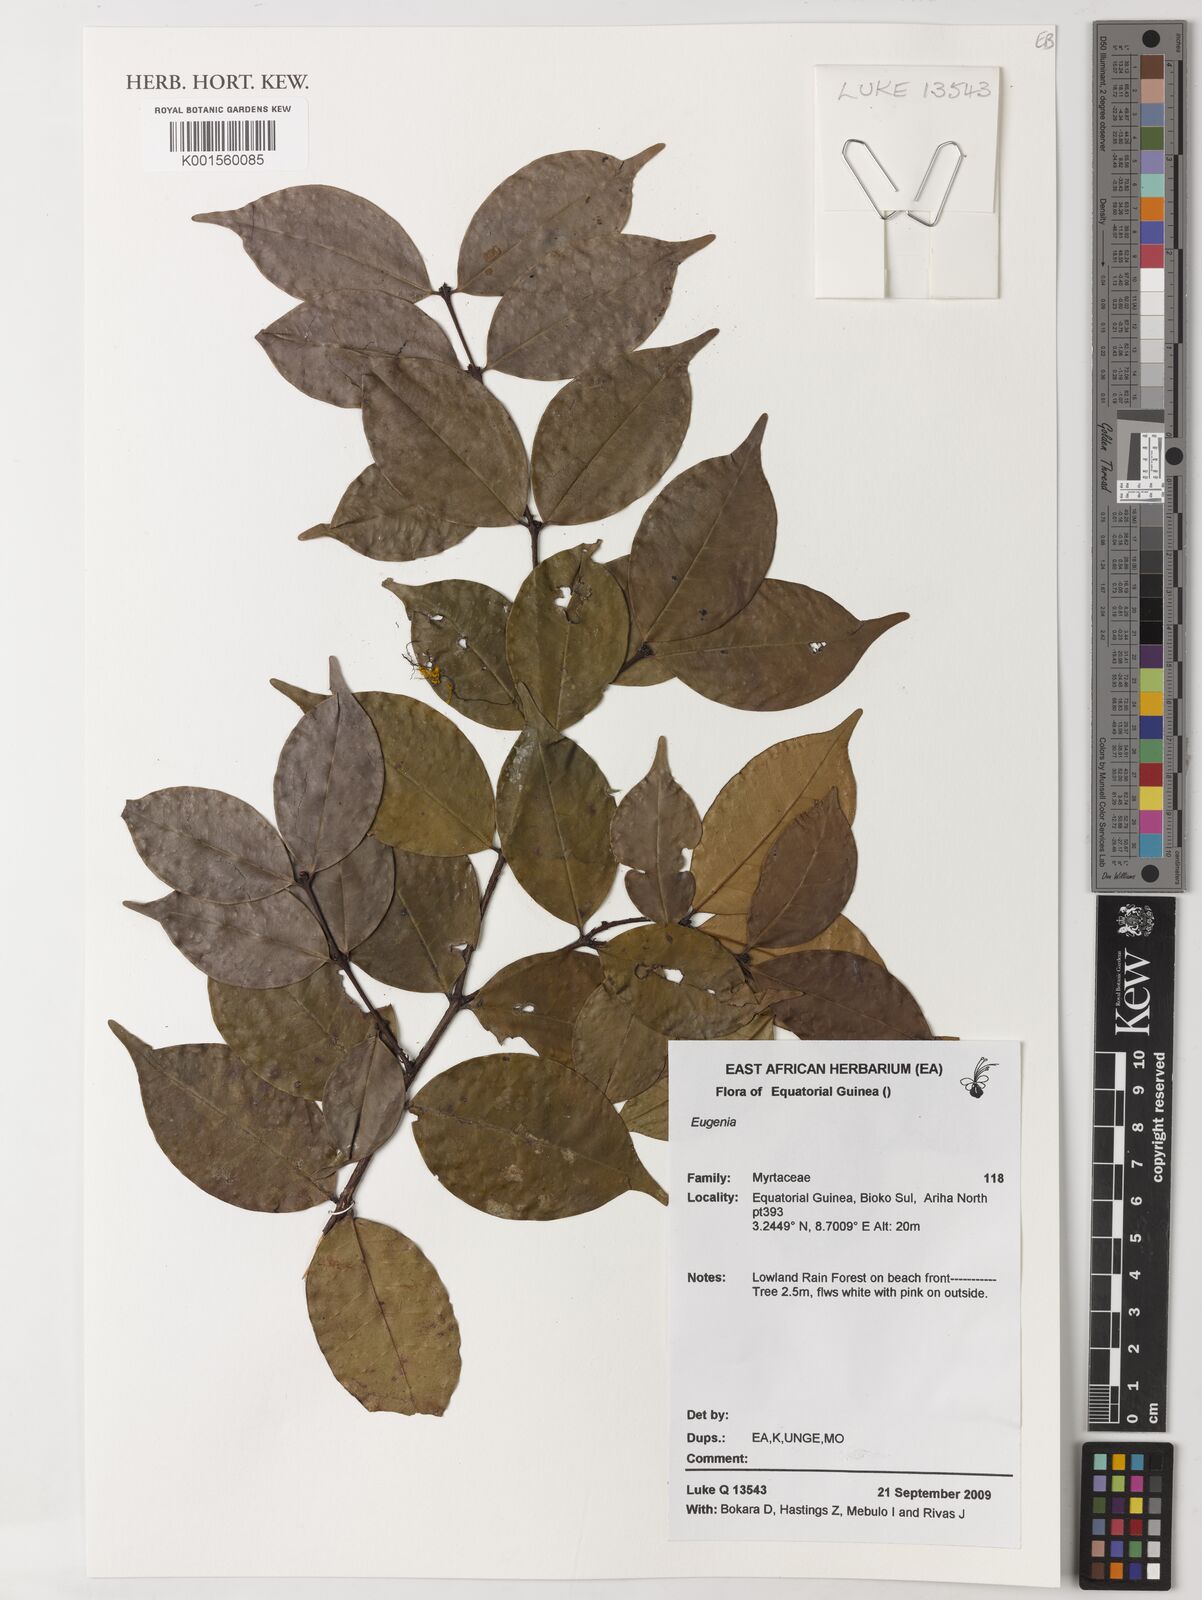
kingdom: Plantae
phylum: Tracheophyta
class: Magnoliopsida
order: Myrtales
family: Myrtaceae
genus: Eugenia
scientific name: Eugenia
